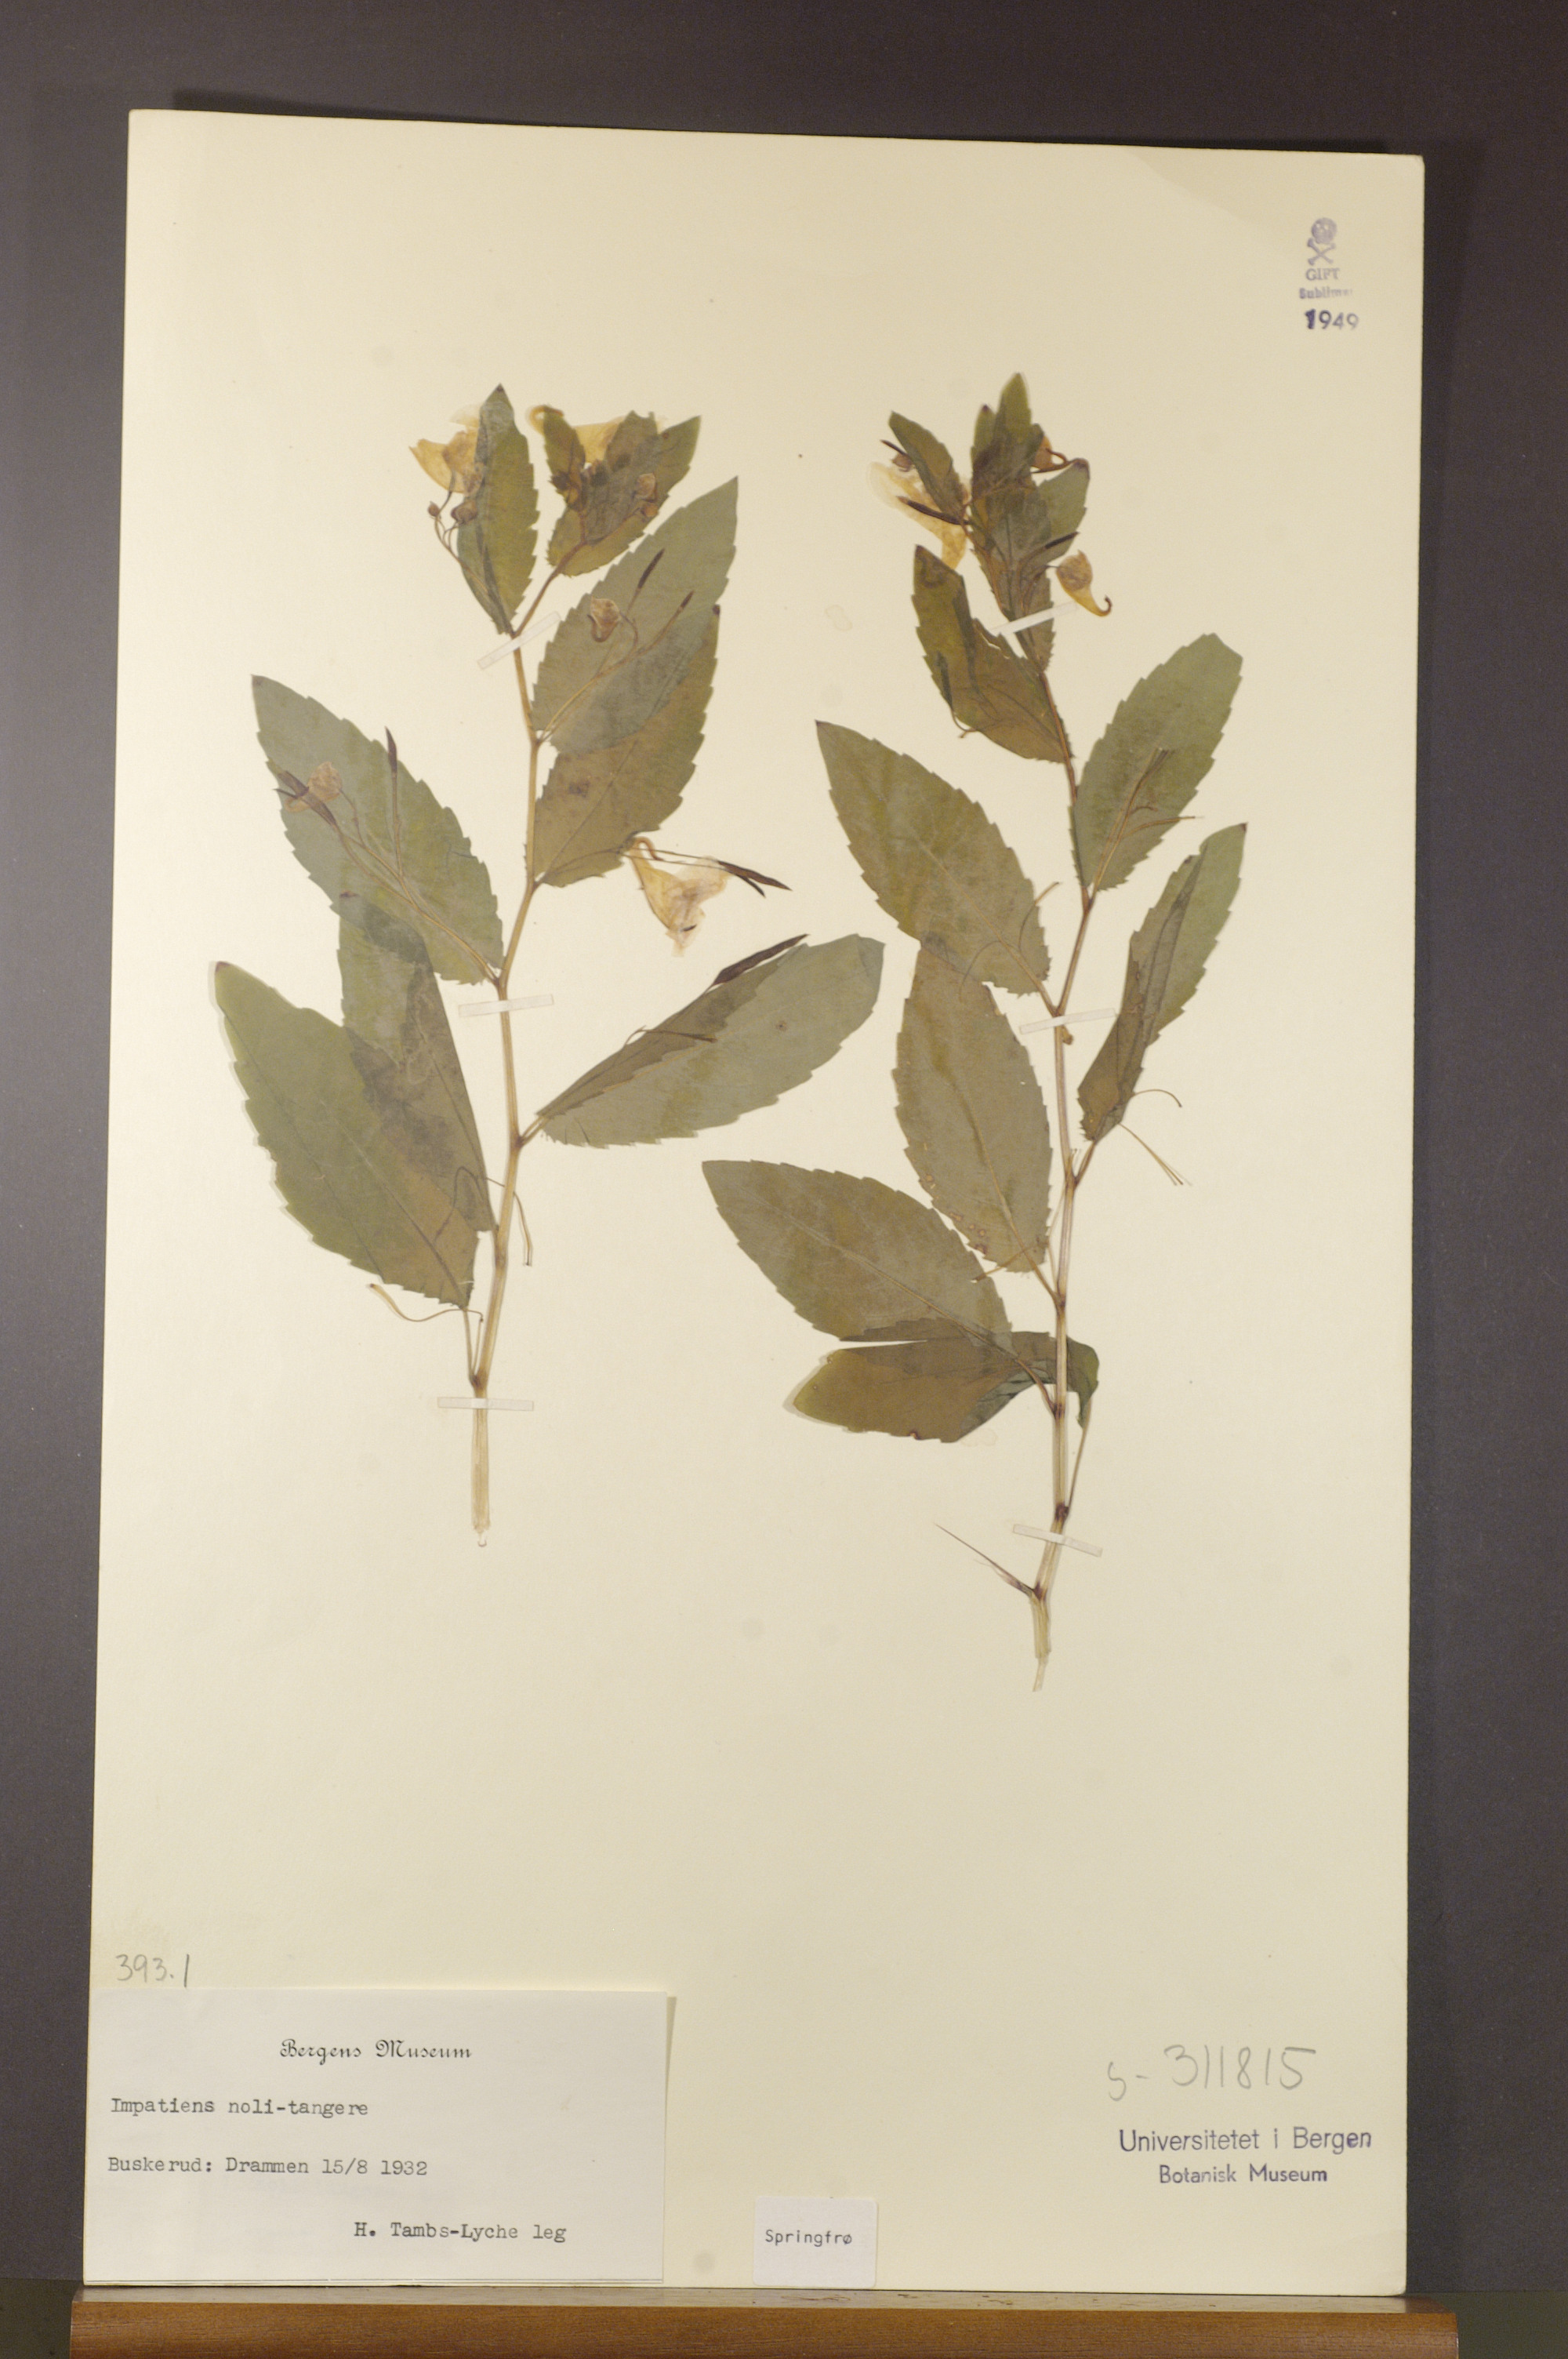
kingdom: Plantae
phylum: Tracheophyta
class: Magnoliopsida
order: Ericales
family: Balsaminaceae
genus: Impatiens
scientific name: Impatiens noli-tangere
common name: Touch-me-not balsam
